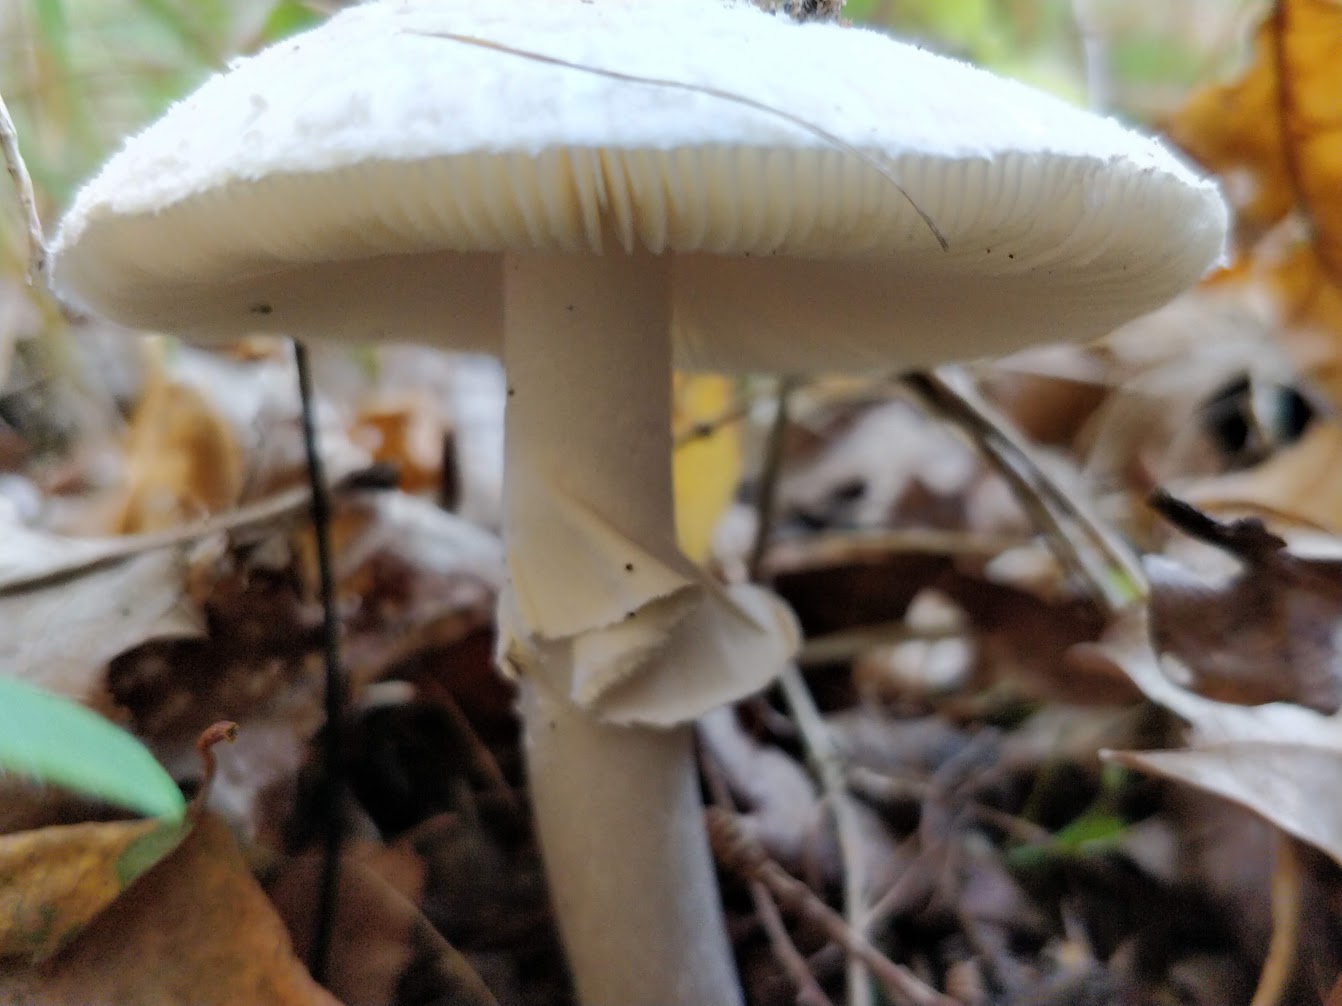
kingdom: Fungi
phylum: Basidiomycota
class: Agaricomycetes
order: Agaricales
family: Amanitaceae
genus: Amanita
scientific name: Amanita porphyria
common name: porfyr-fluesvamp
